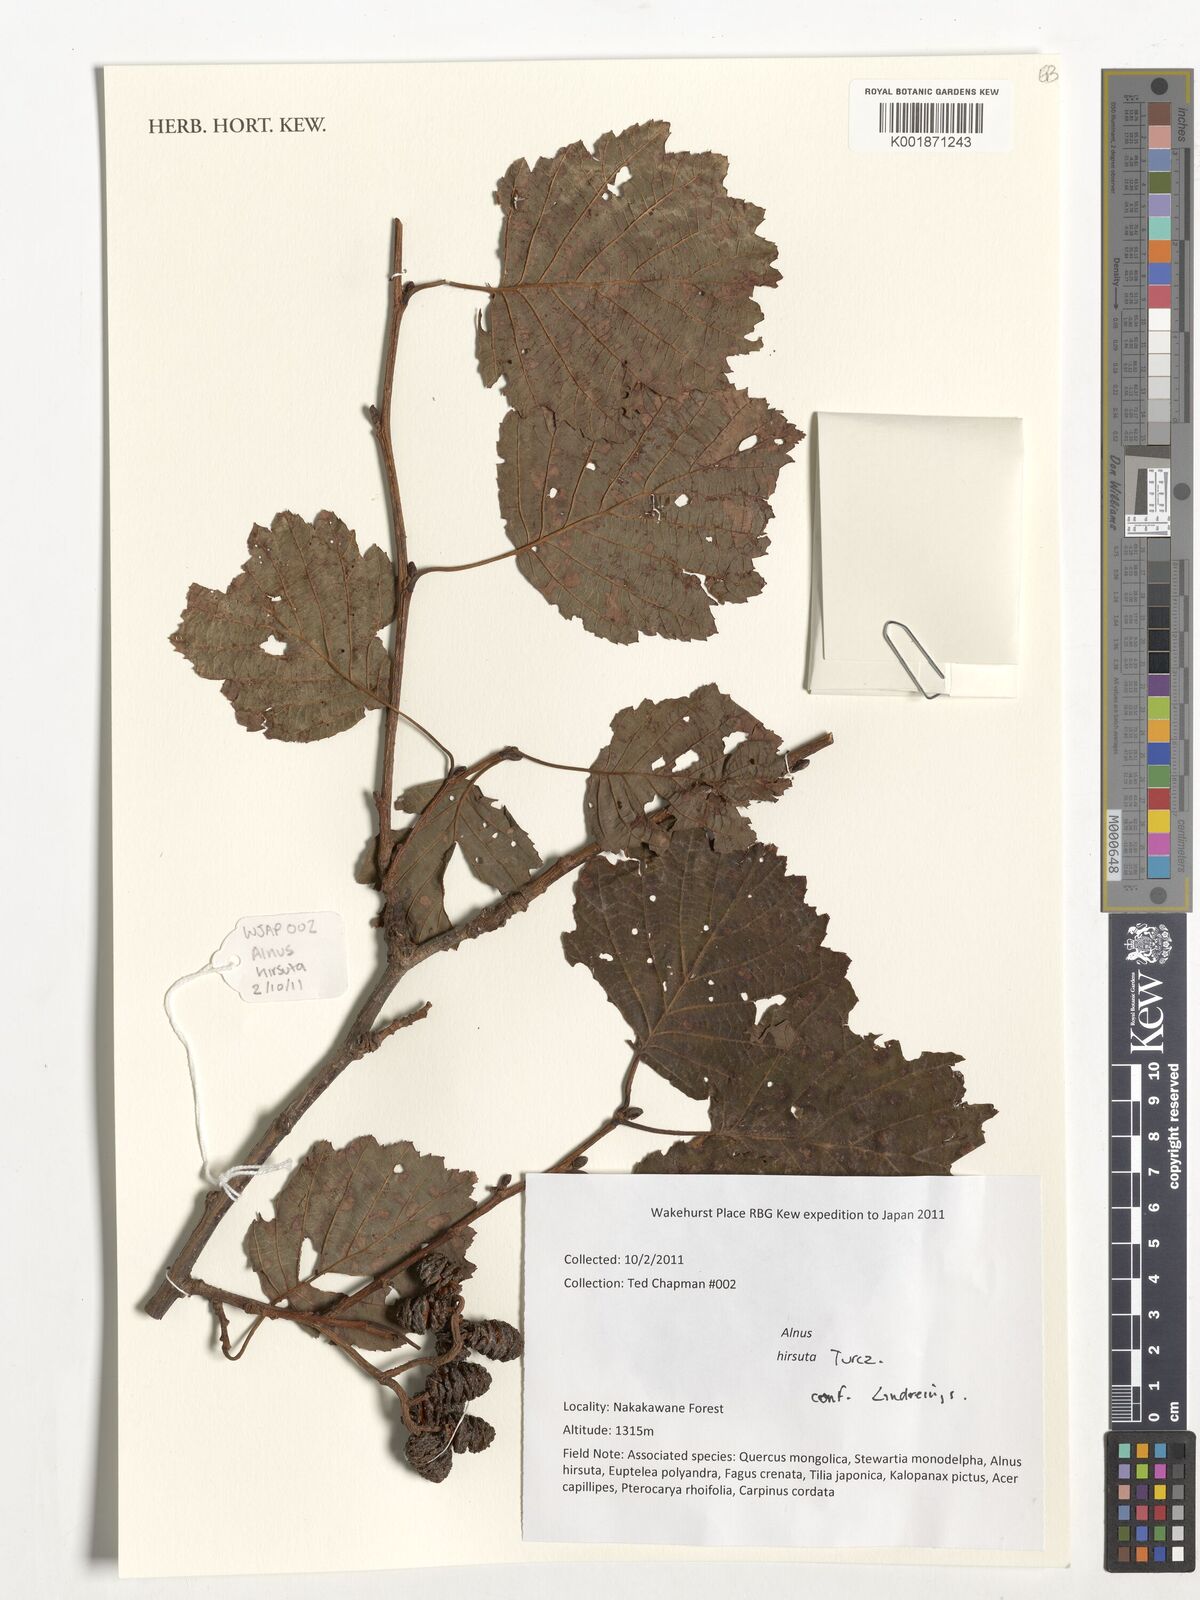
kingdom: Plantae
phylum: Tracheophyta
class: Magnoliopsida
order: Fagales
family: Betulaceae
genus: Alnus
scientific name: Alnus
